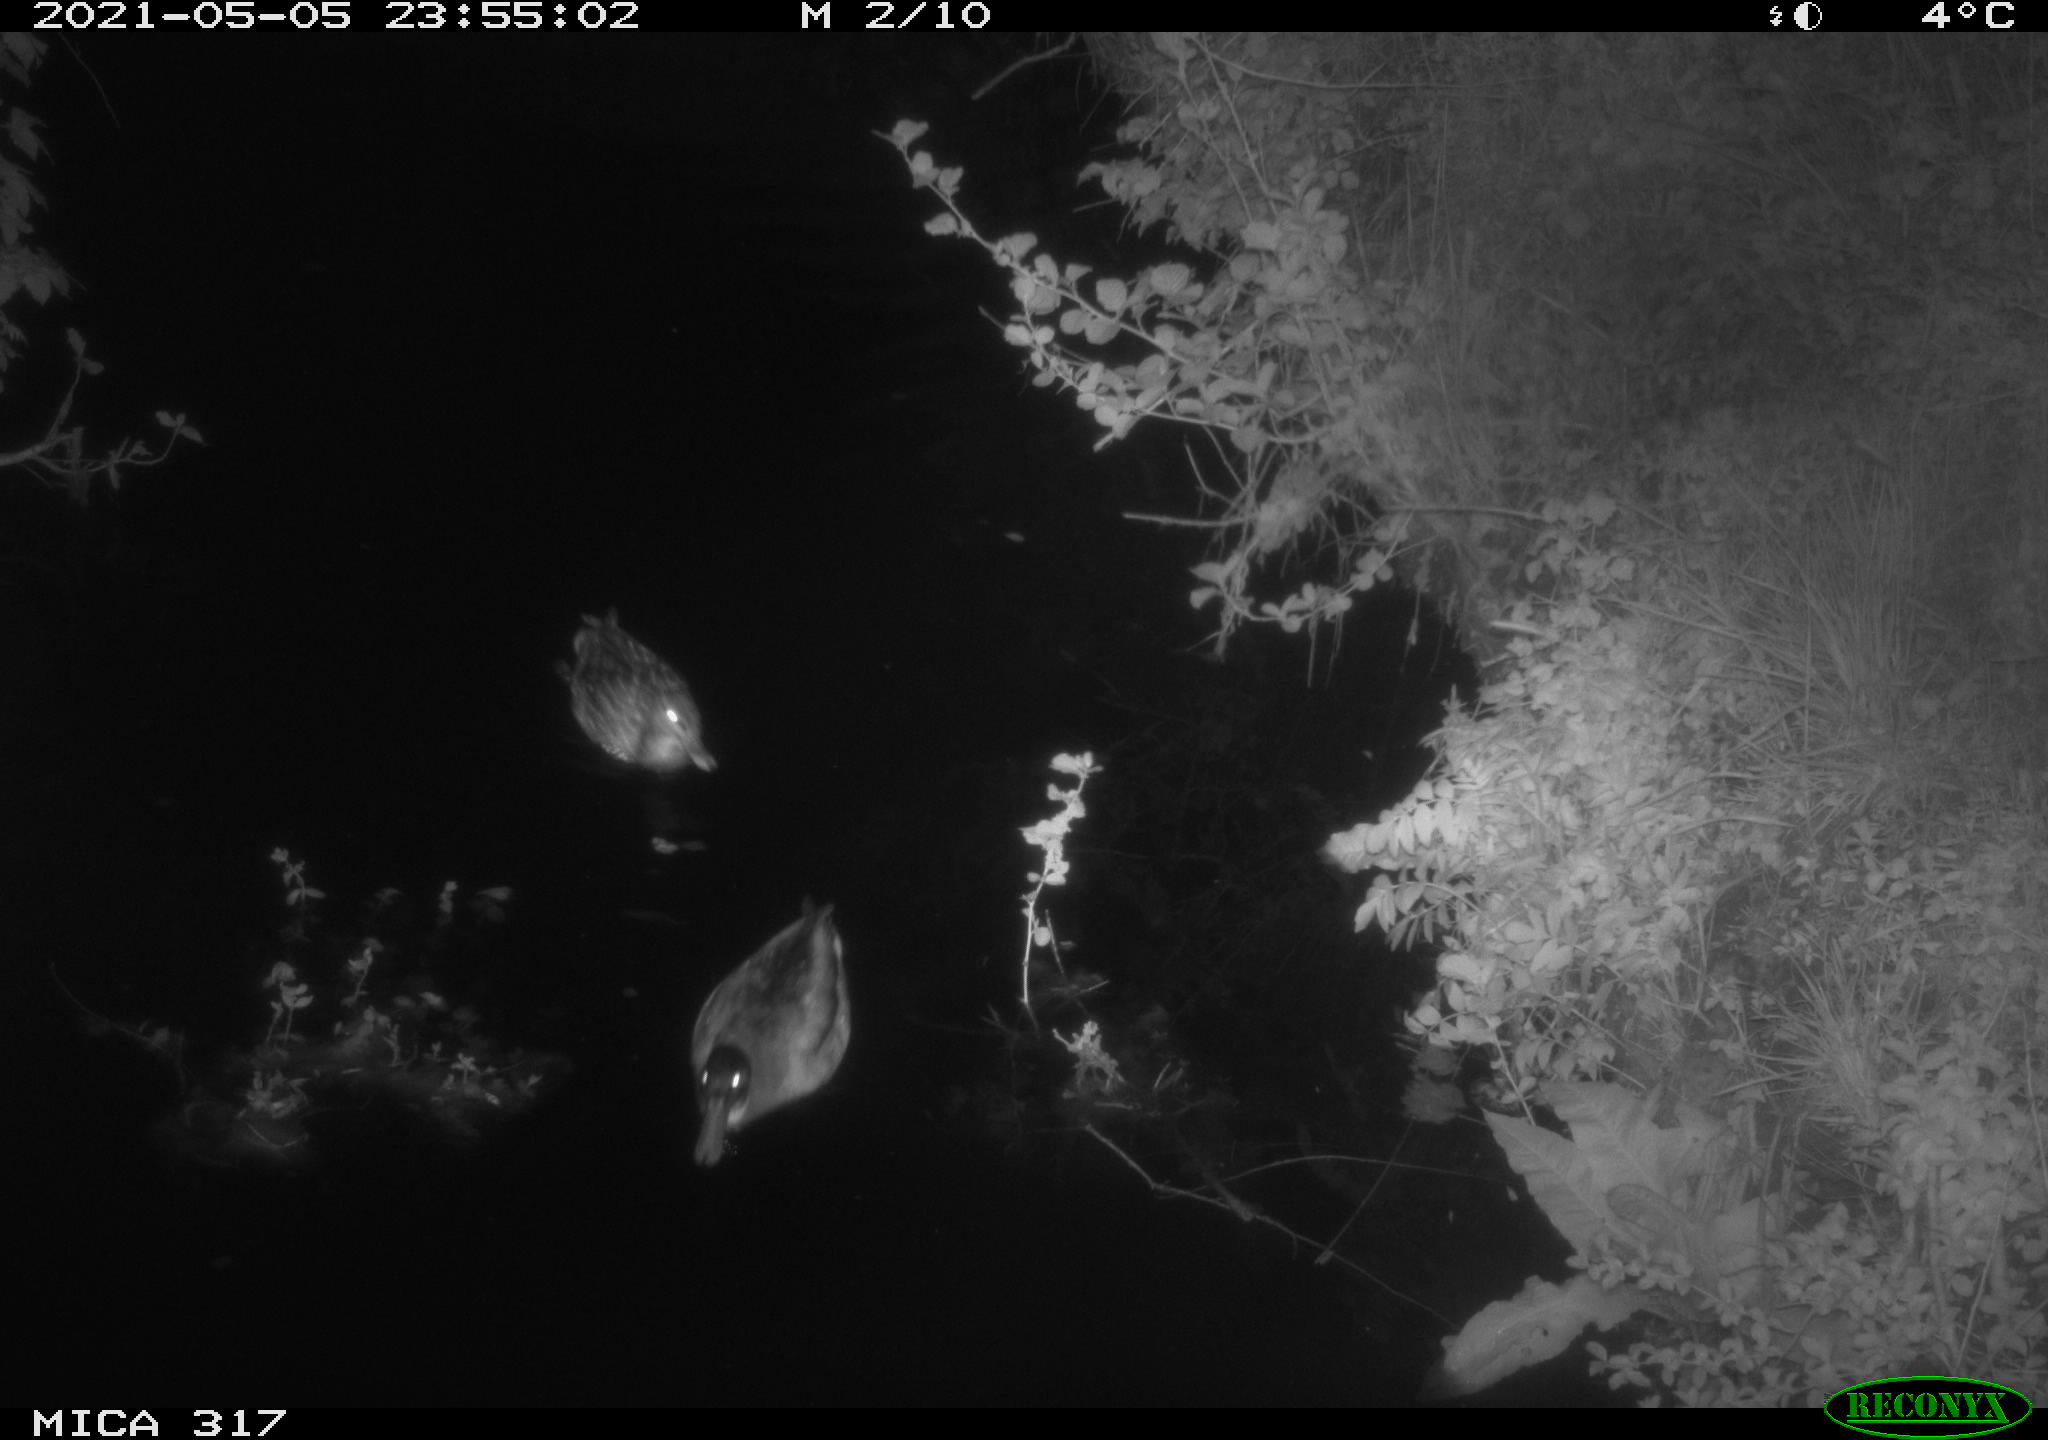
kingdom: Animalia
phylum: Chordata
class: Aves
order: Anseriformes
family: Anatidae
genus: Anas
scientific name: Anas
